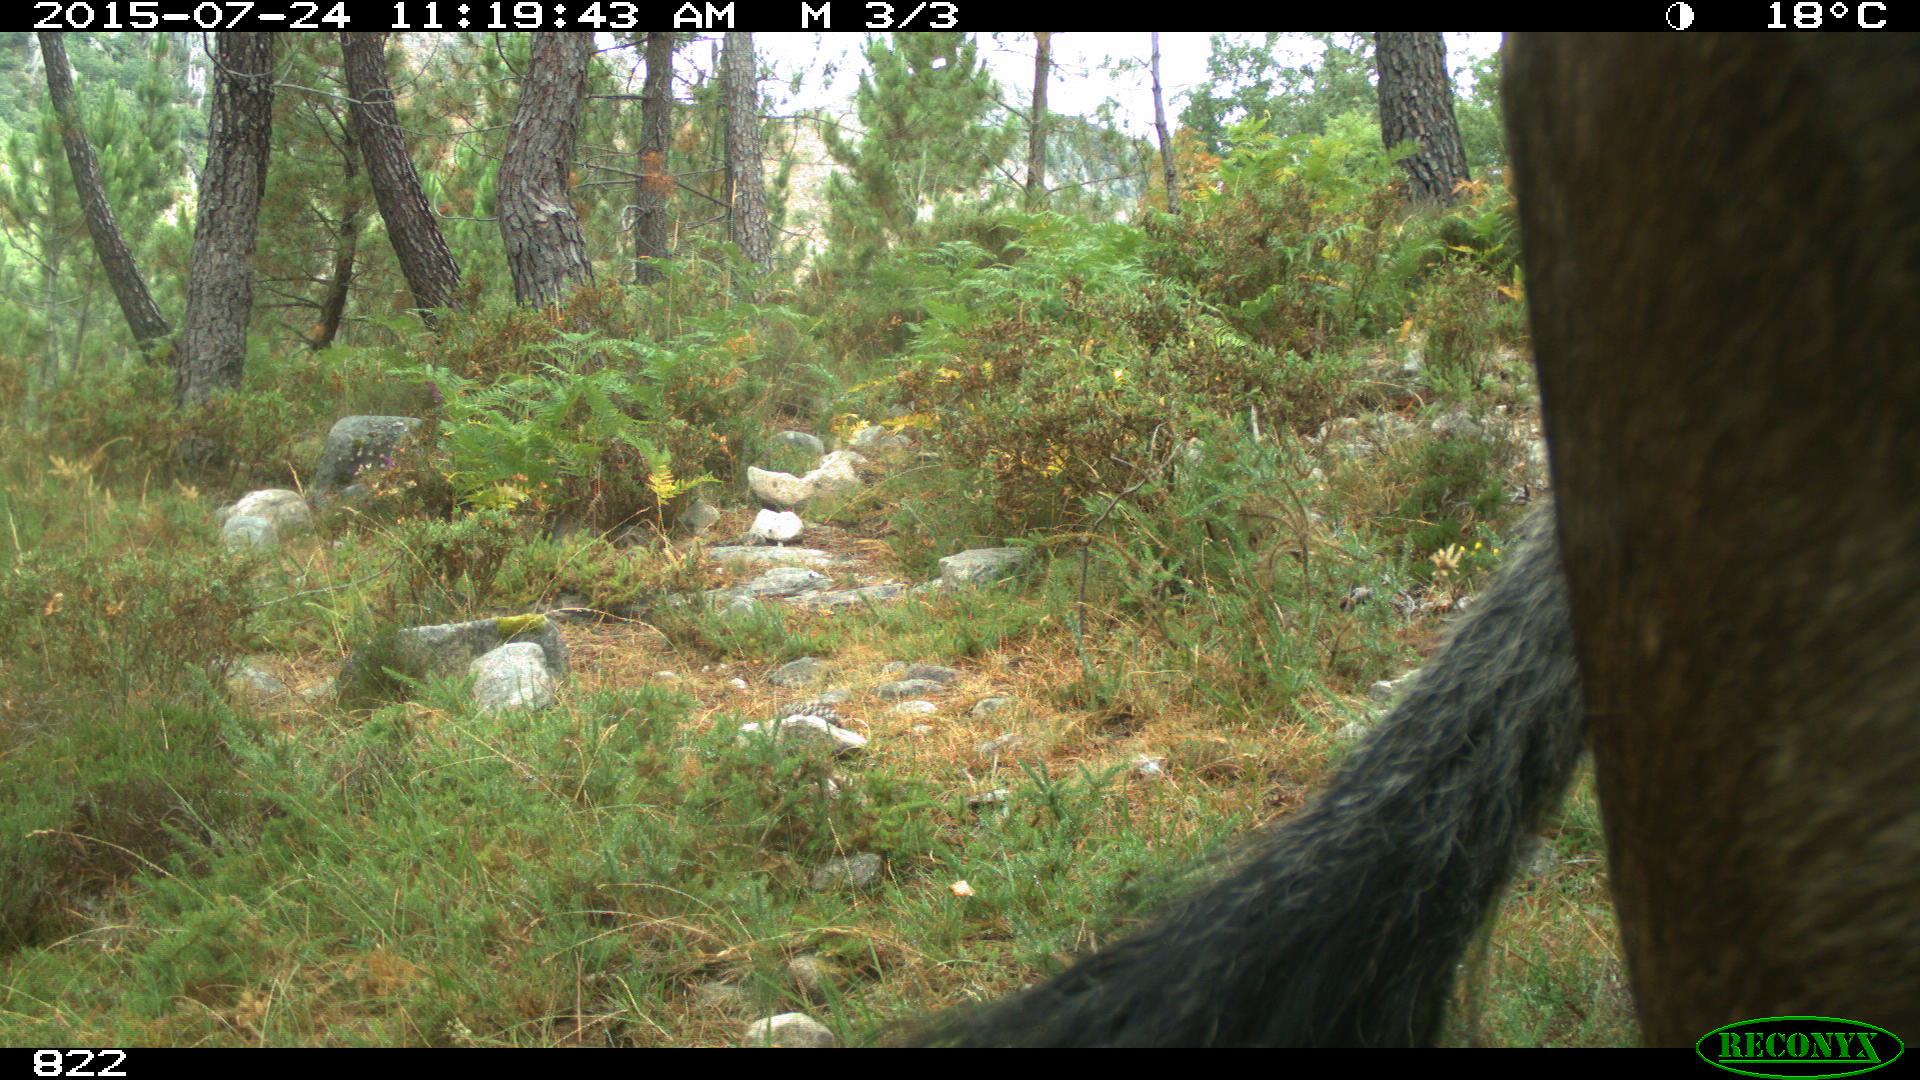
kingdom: Animalia
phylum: Chordata
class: Mammalia
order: Artiodactyla
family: Bovidae
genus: Bos
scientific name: Bos taurus
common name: Domesticated cattle
